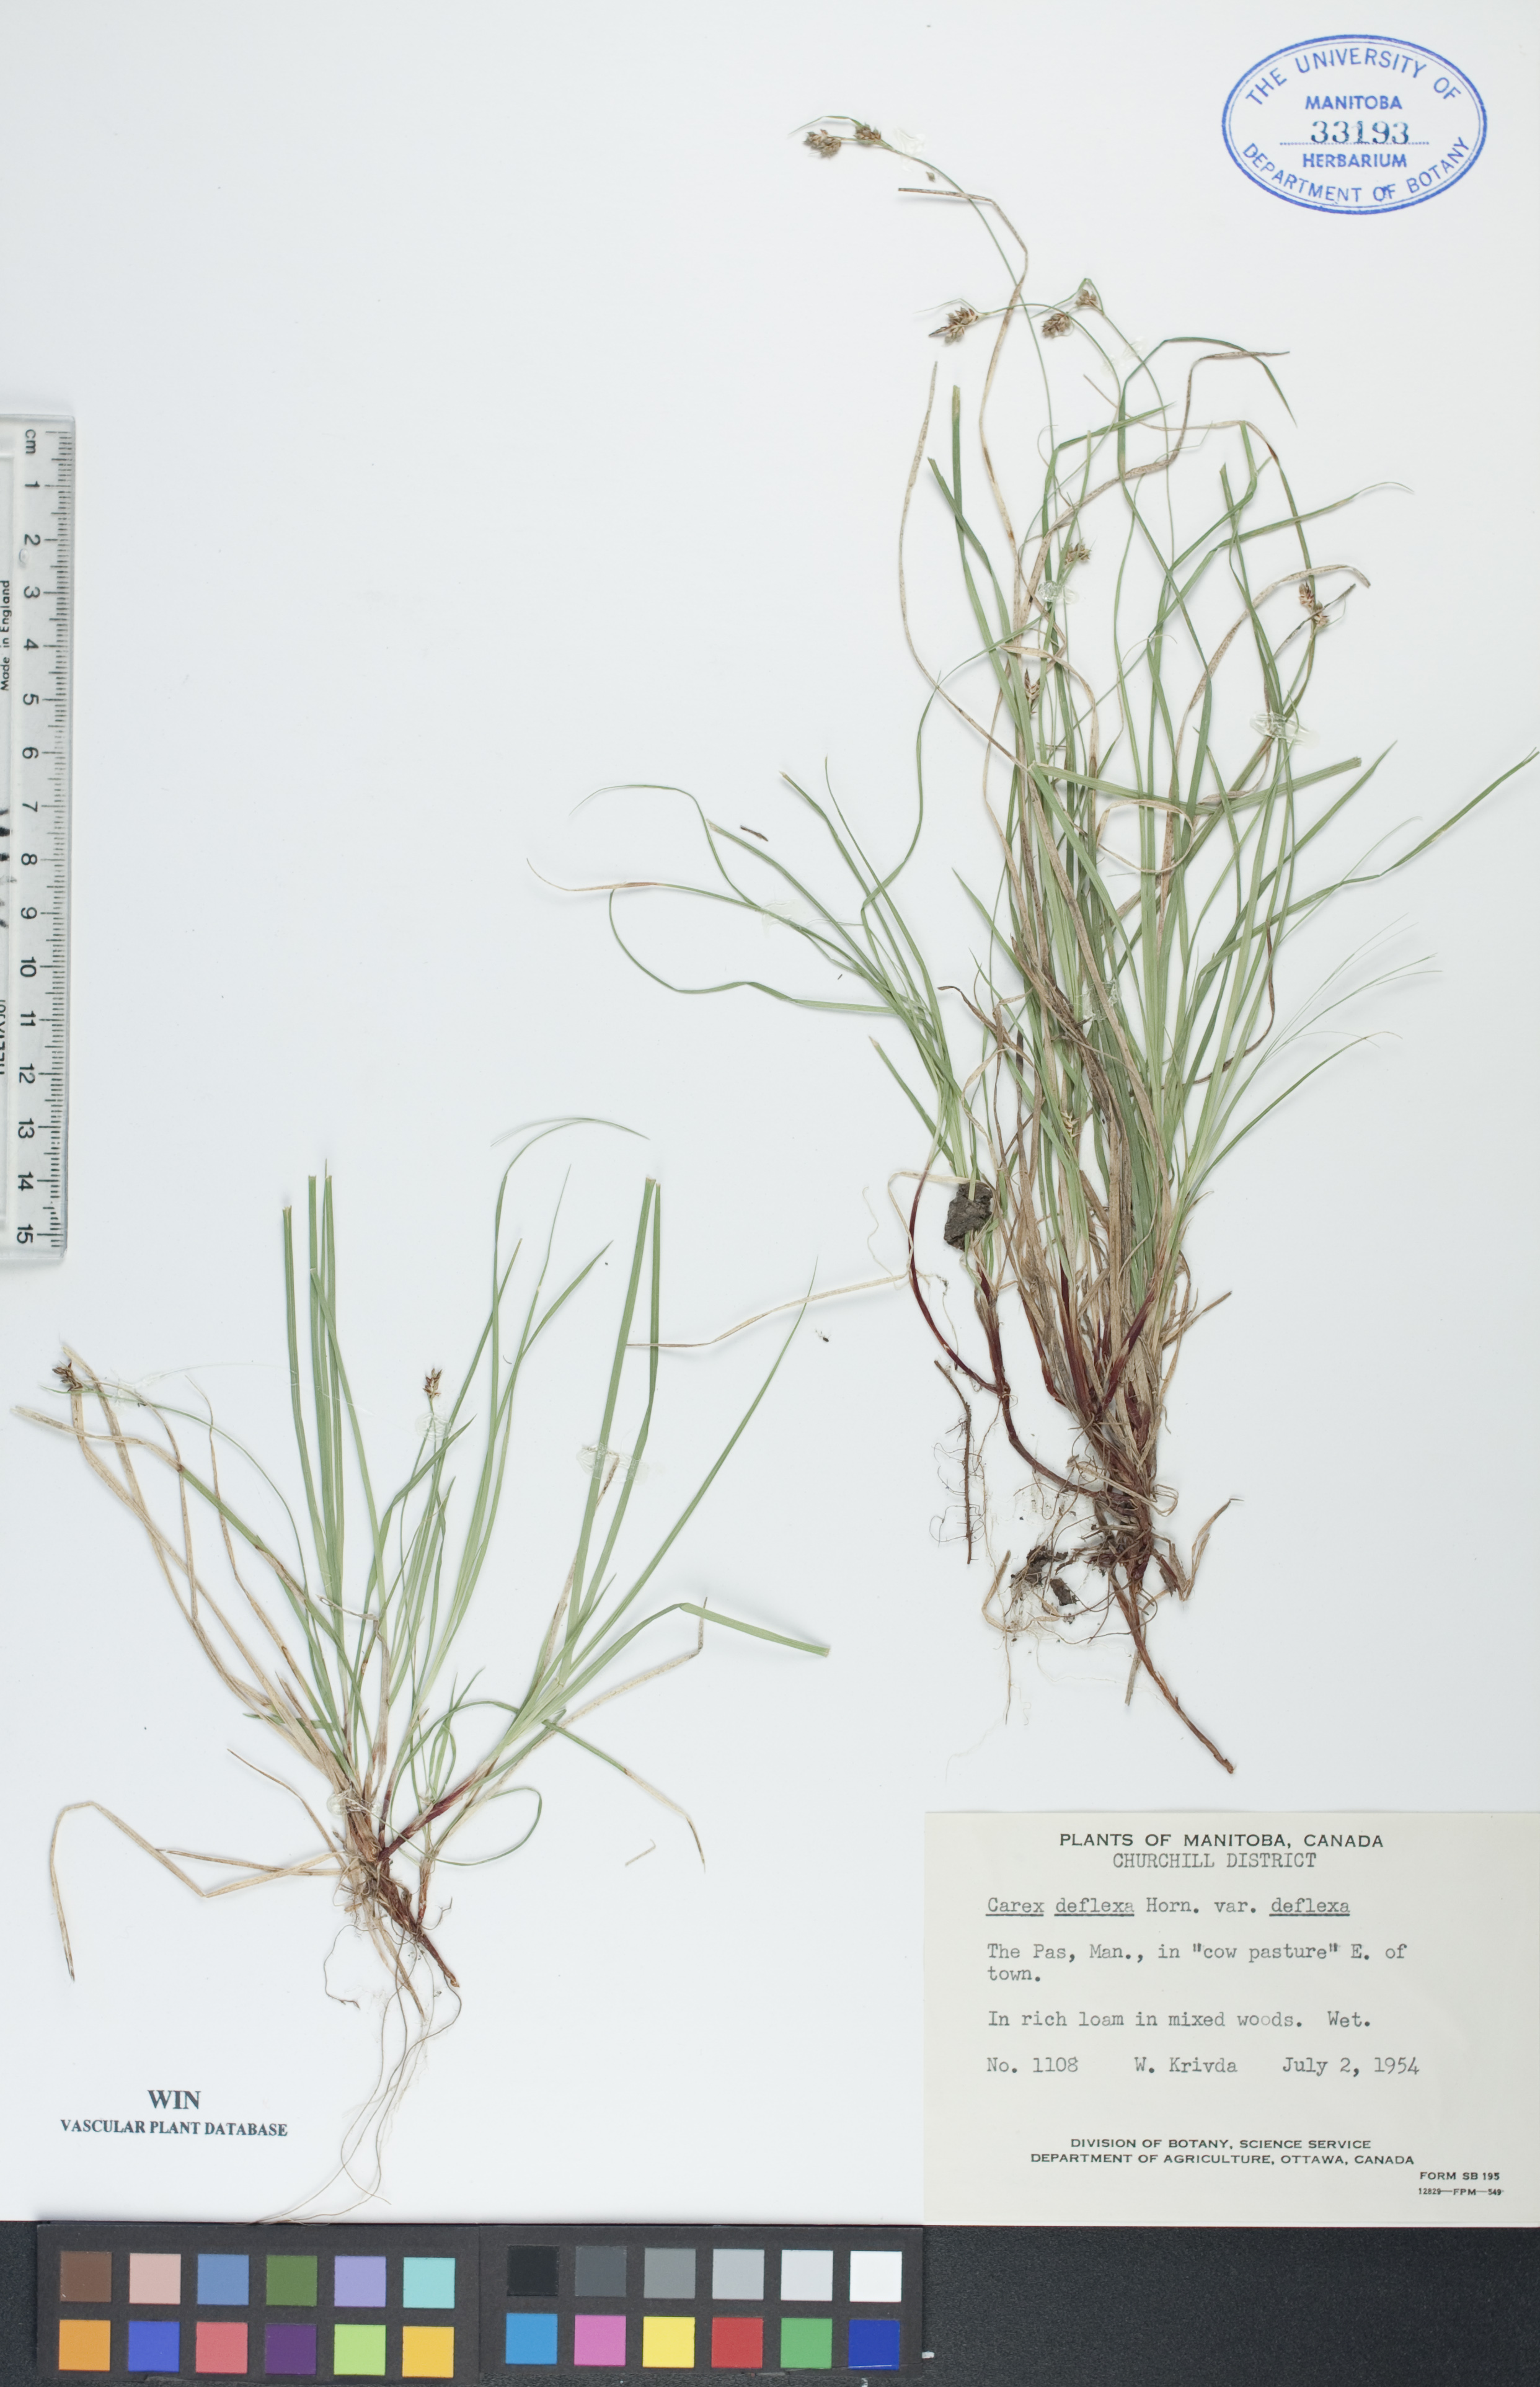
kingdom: Plantae
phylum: Tracheophyta
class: Liliopsida
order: Poales
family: Cyperaceae
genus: Carex
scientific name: Carex deflexa
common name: Bent northern sedge
